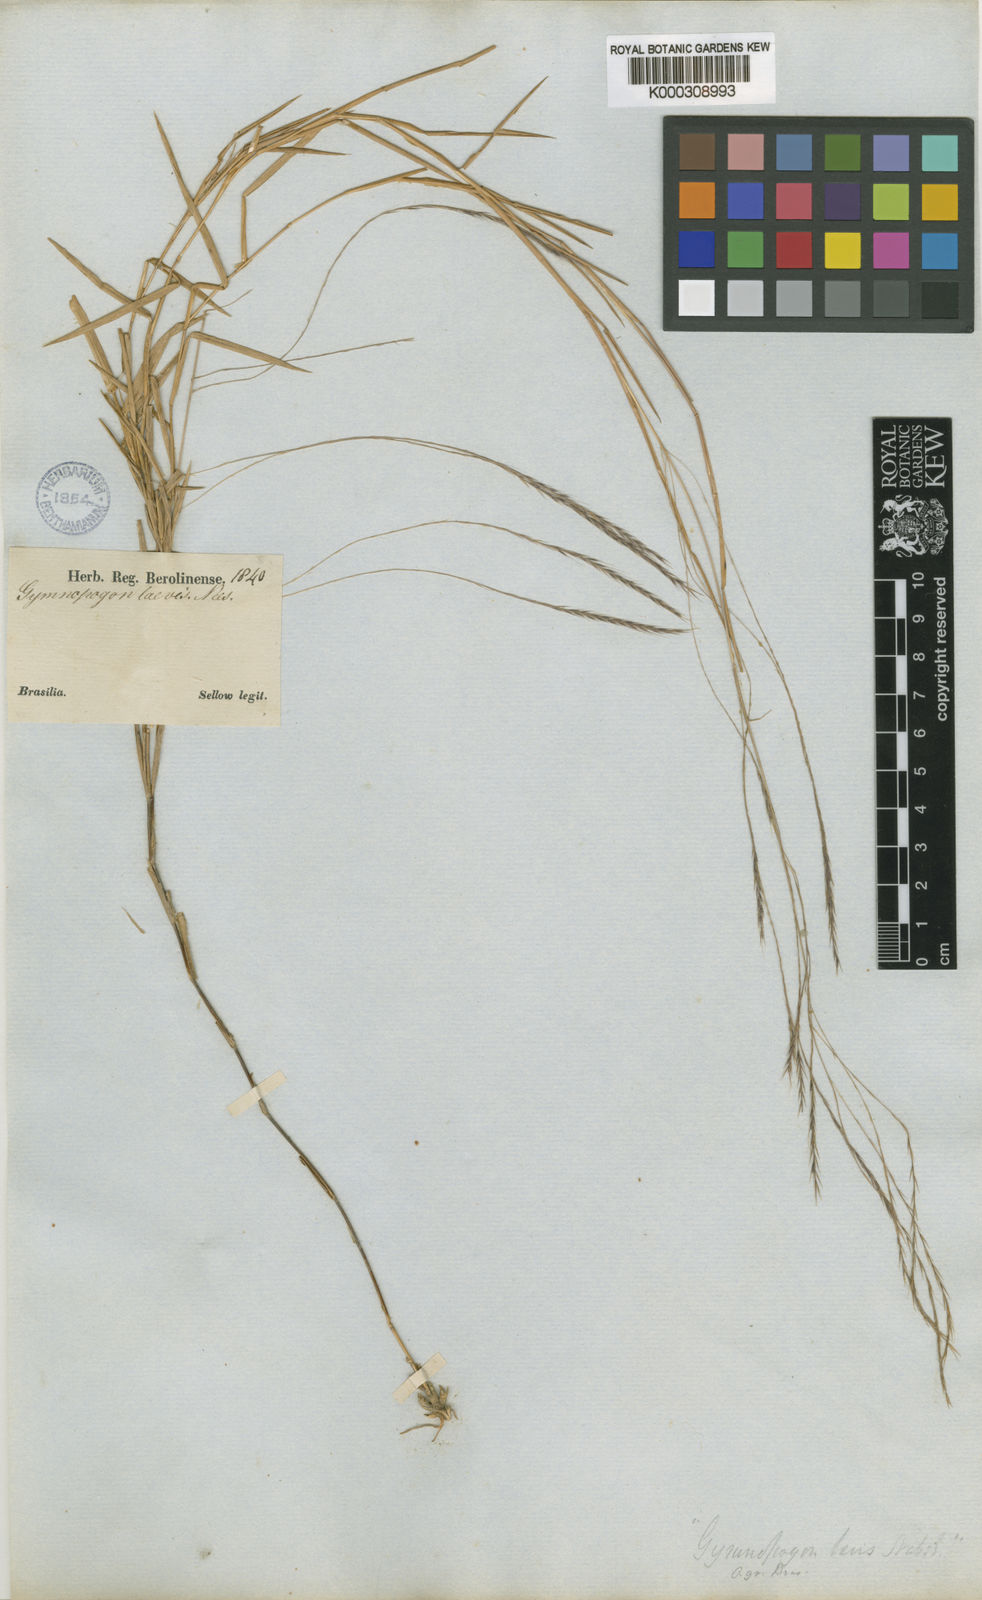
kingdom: Plantae
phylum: Tracheophyta
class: Liliopsida
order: Poales
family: Poaceae
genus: Gymnopogon
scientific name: Gymnopogon spicatus
